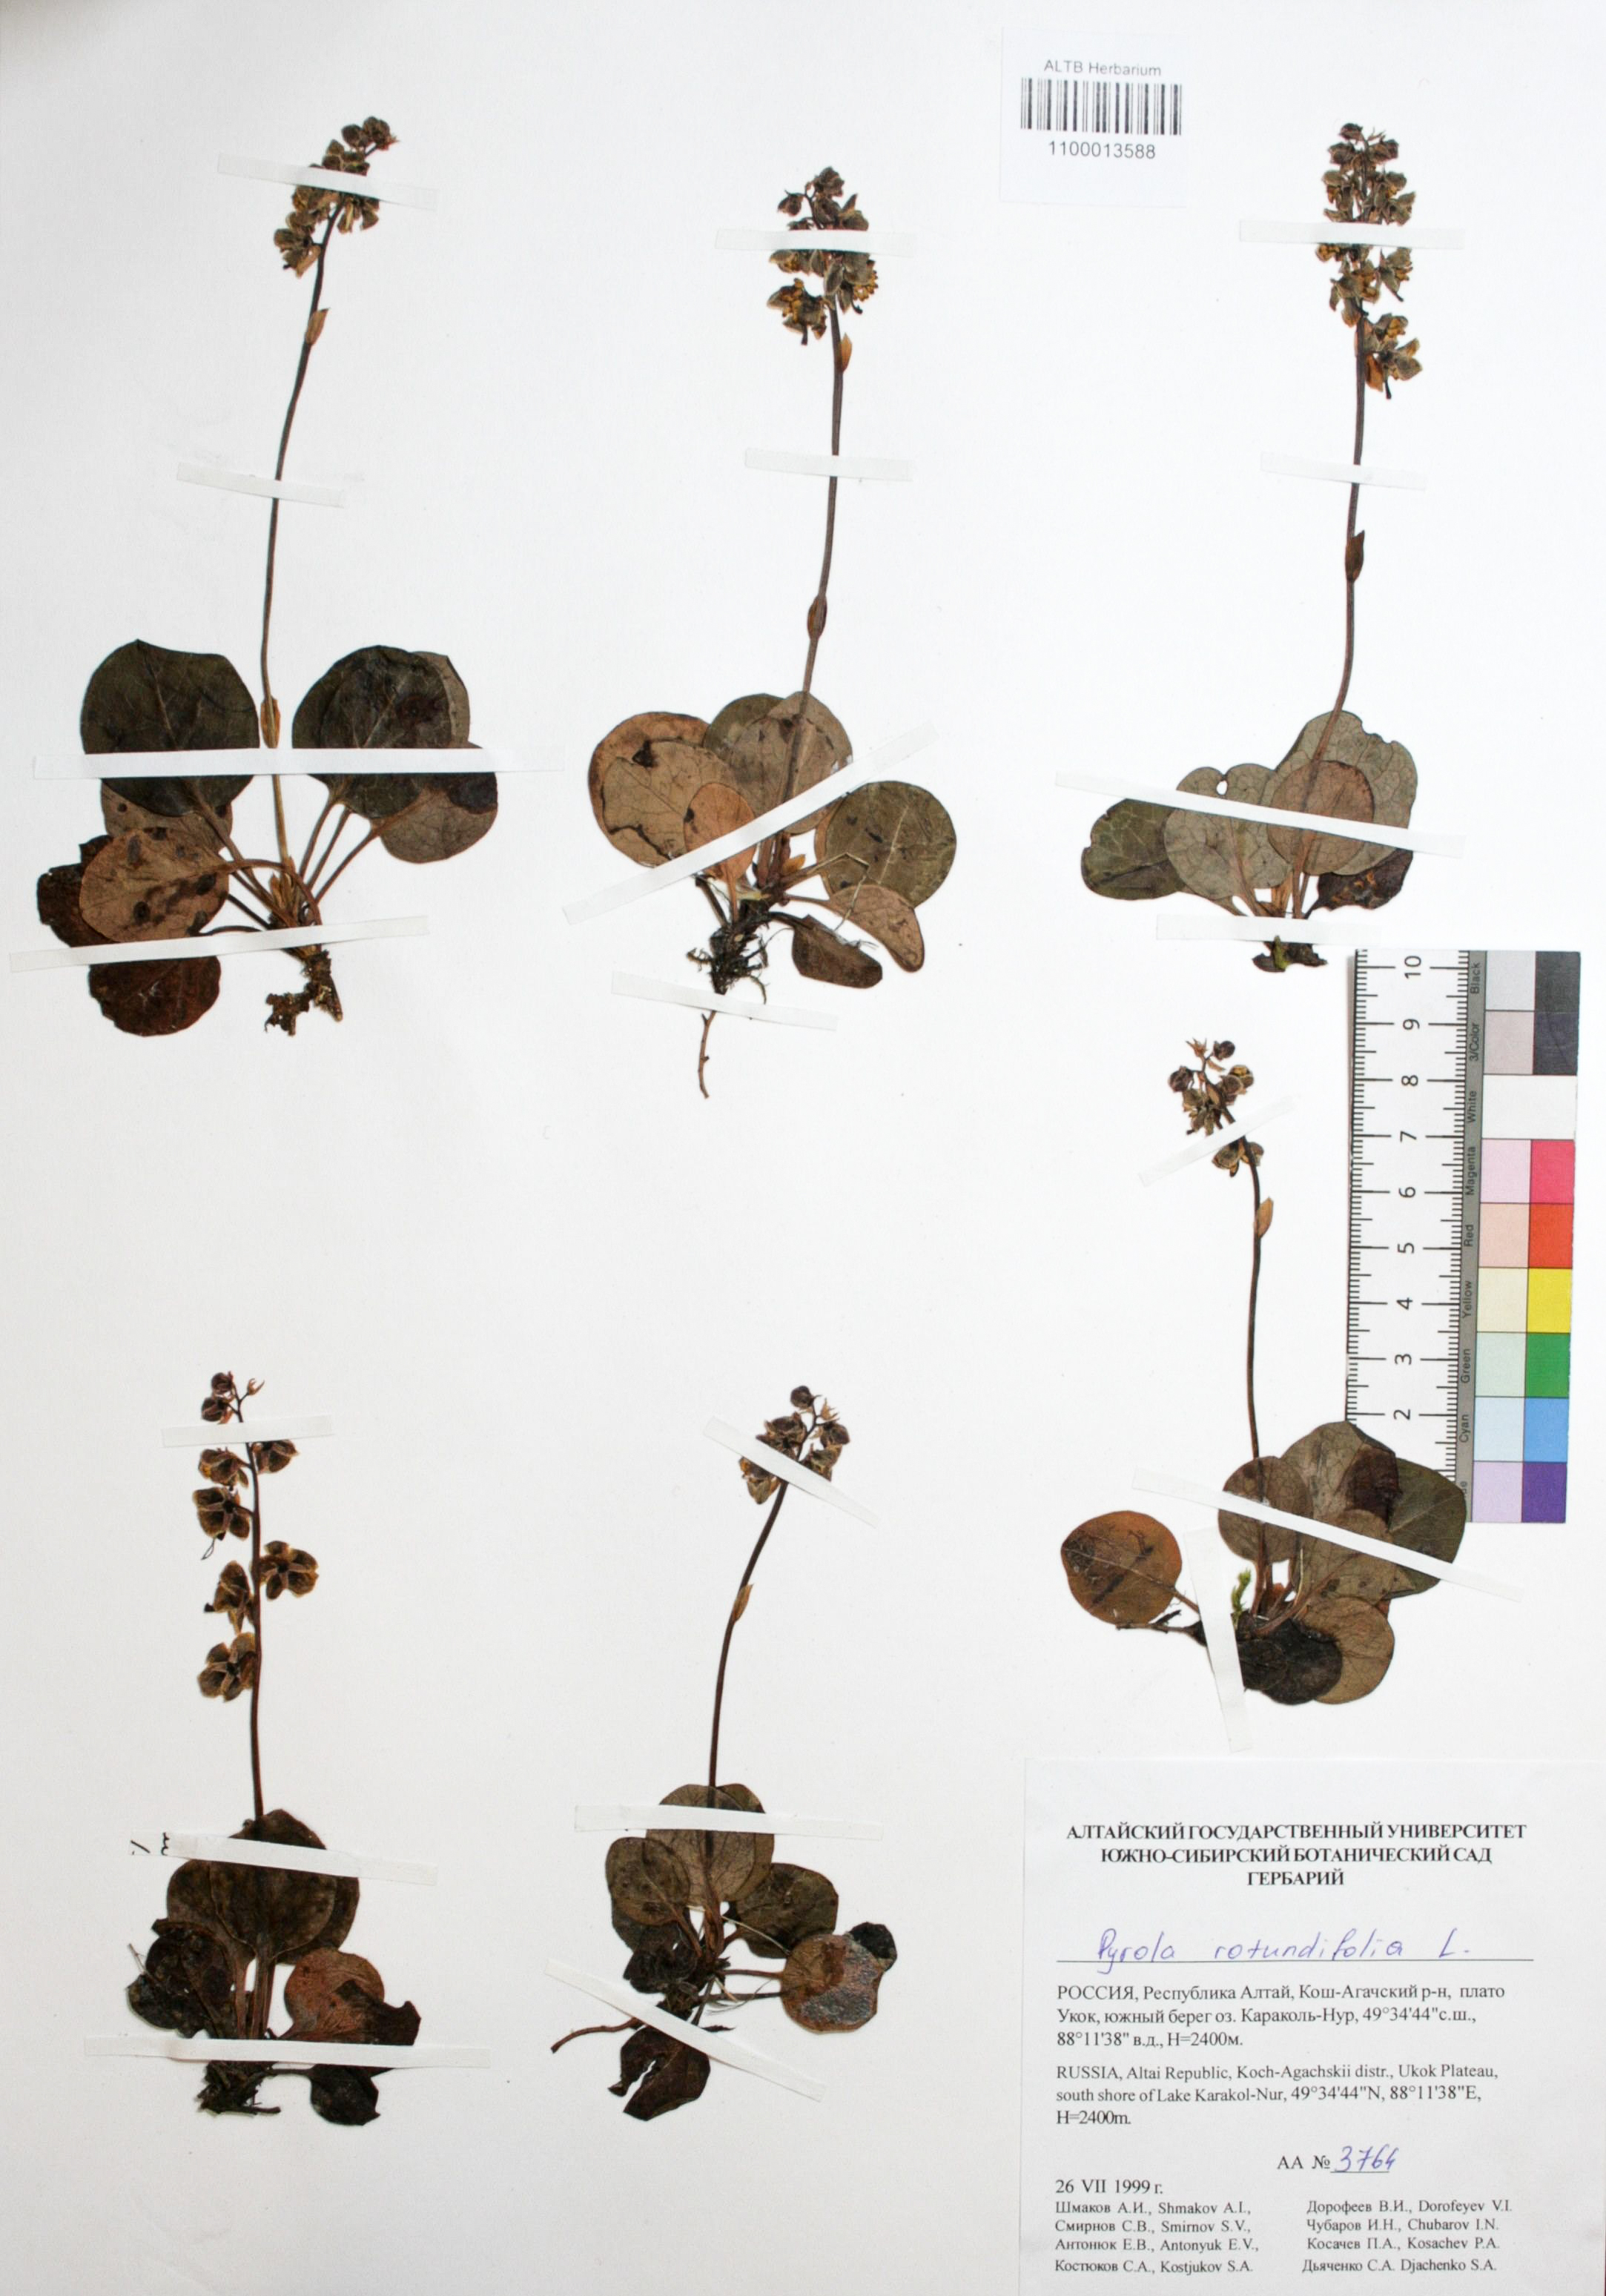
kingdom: Plantae
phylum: Tracheophyta
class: Magnoliopsida
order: Ericales
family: Ericaceae
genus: Pyrola
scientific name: Pyrola rotundifolia
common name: Round-leaved wintergreen
